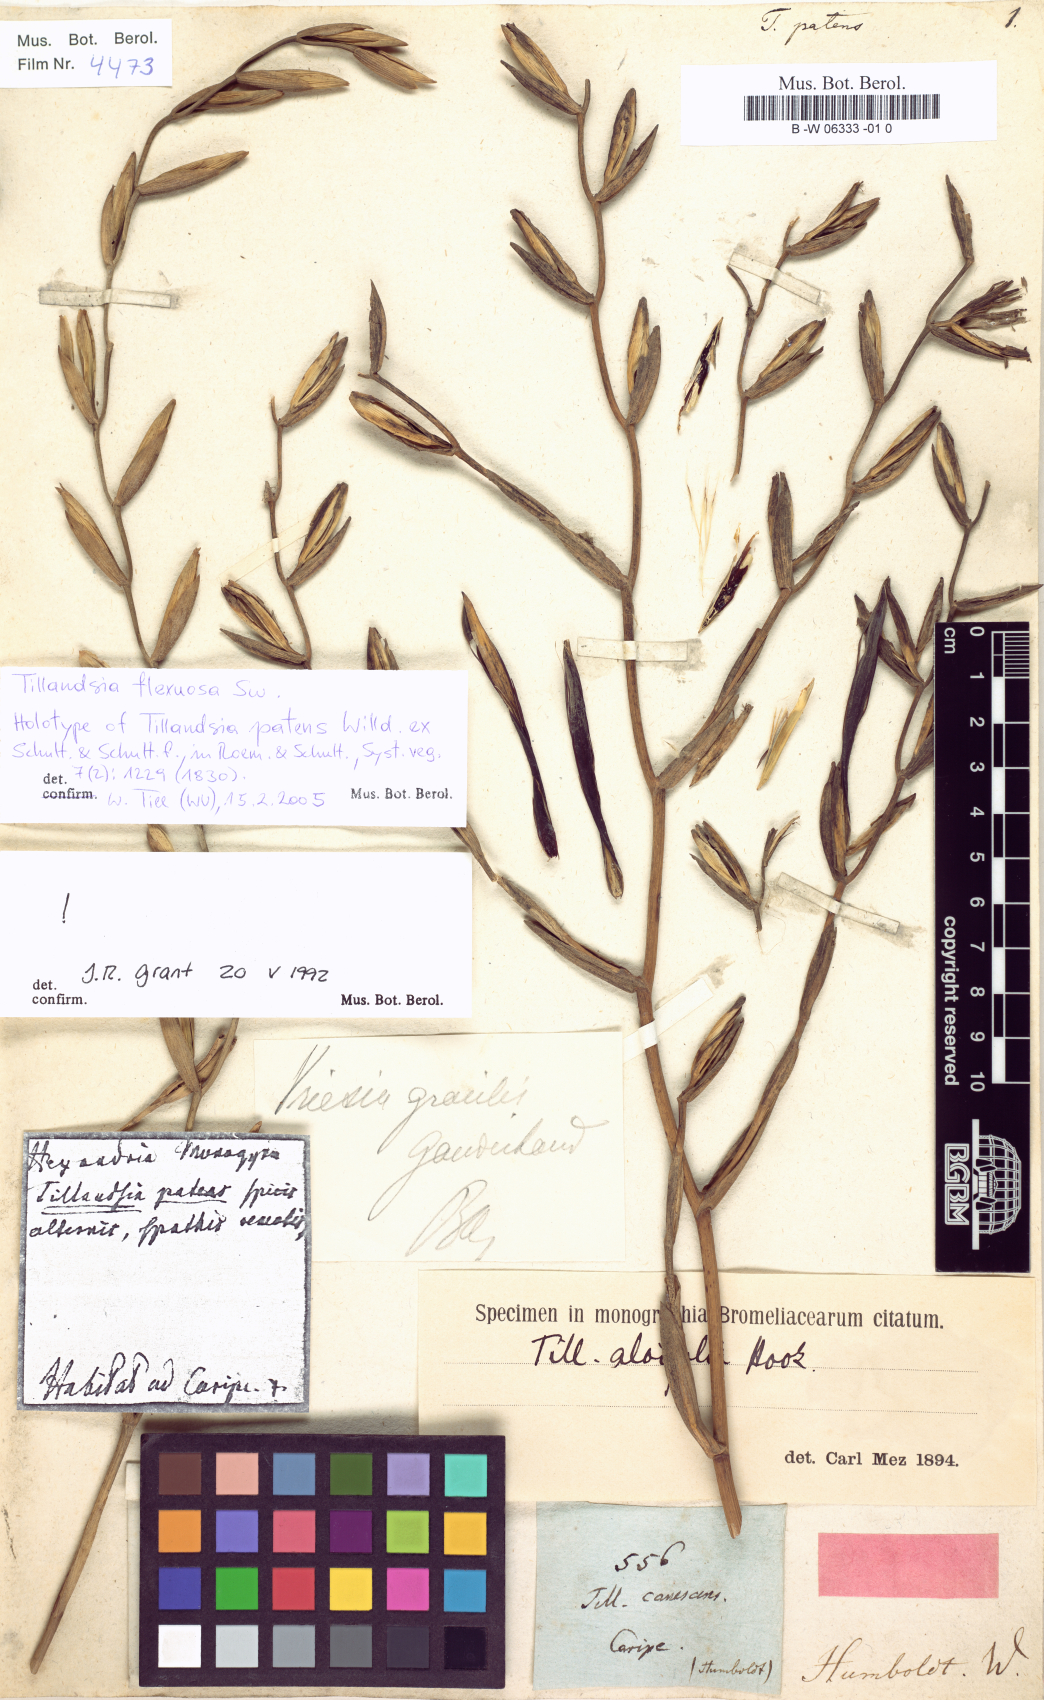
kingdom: Plantae
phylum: Tracheophyta
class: Liliopsida
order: Poales
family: Bromeliaceae
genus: Tillandsia
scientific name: Tillandsia flexuosa
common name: Banded airplant
